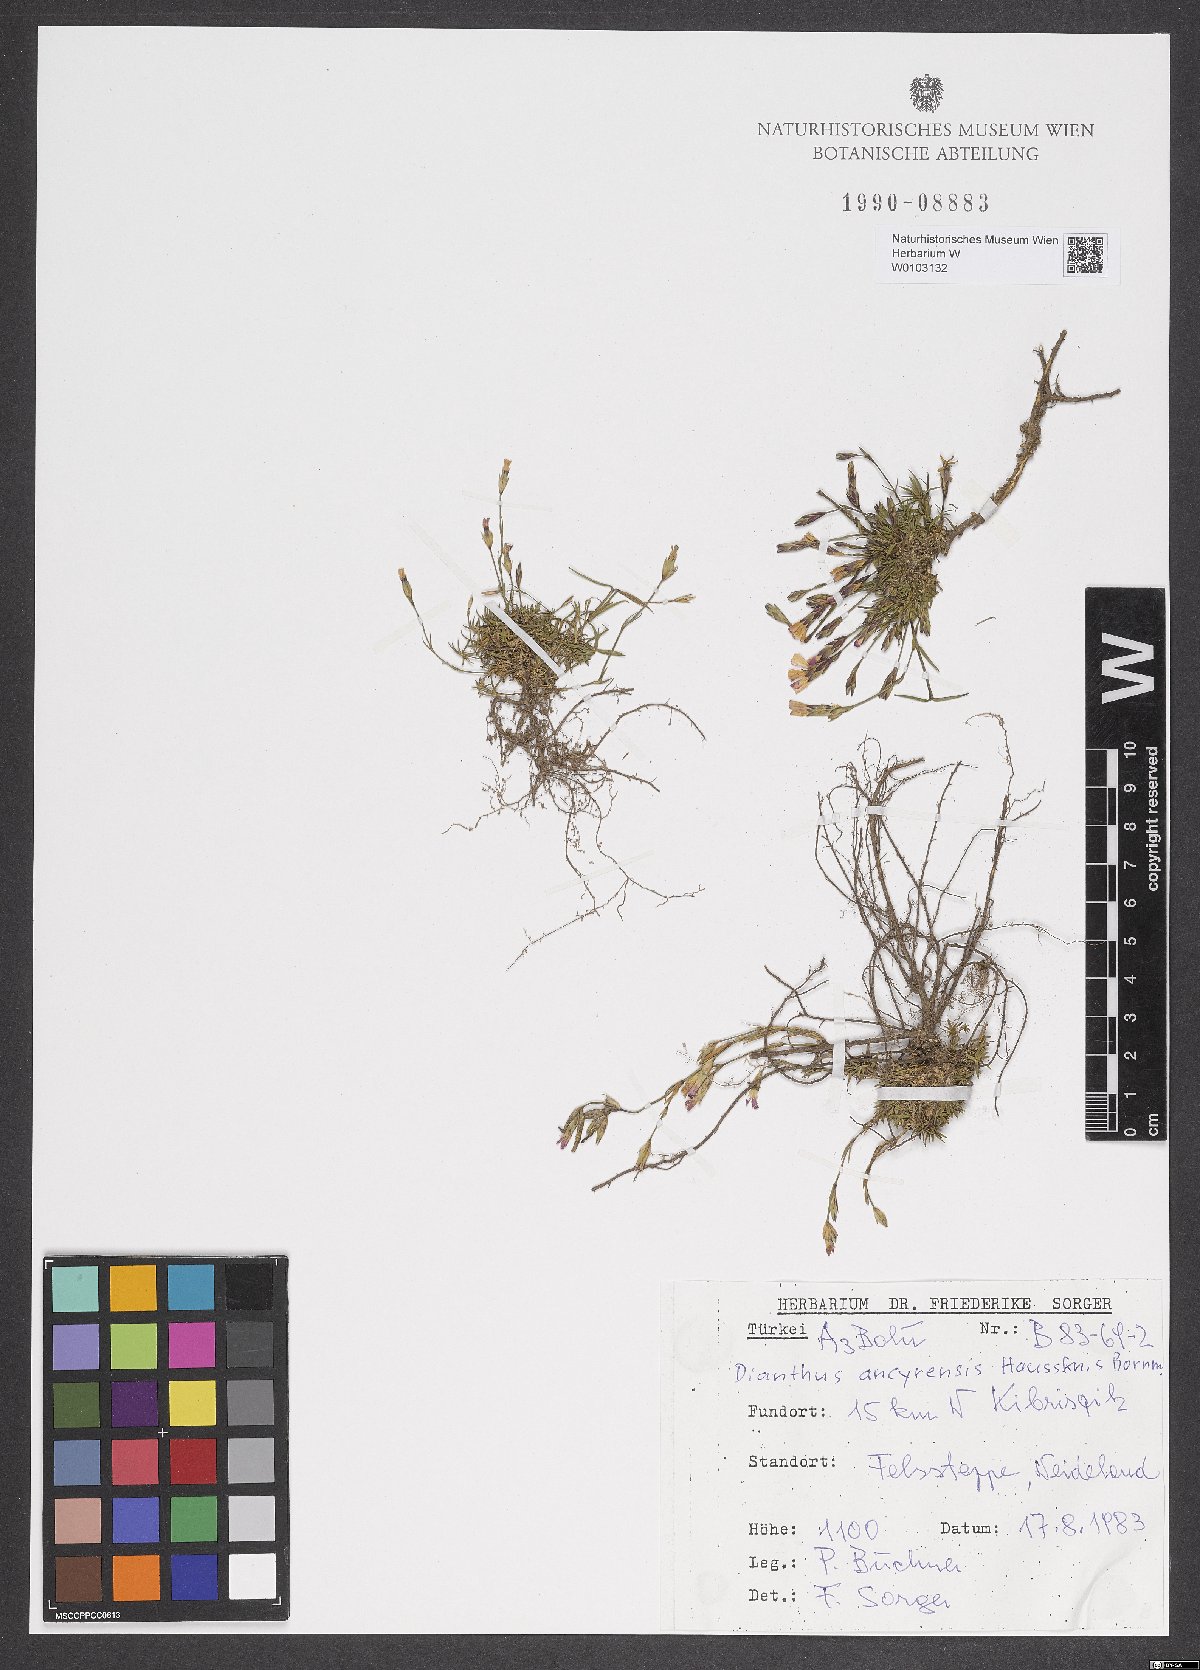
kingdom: Plantae
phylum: Tracheophyta
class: Magnoliopsida
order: Caryophyllales
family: Caryophyllaceae
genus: Dianthus
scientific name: Dianthus ancyrensis
